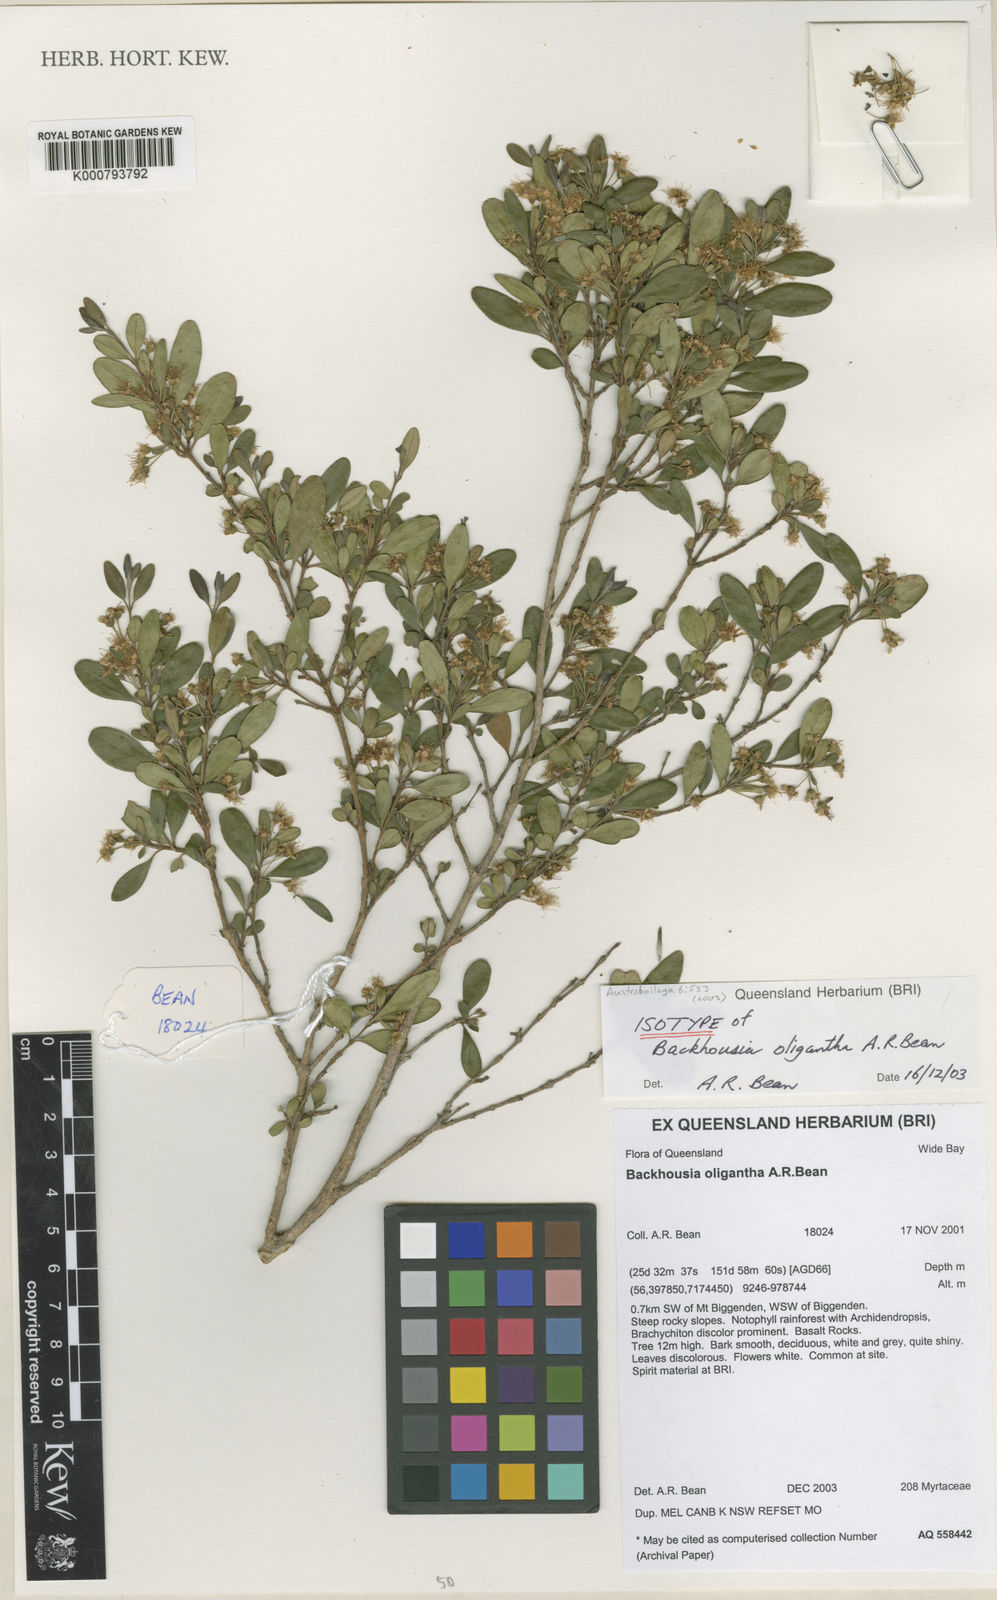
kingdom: Plantae
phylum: Tracheophyta
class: Magnoliopsida
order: Myrtales
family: Myrtaceae
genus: Backhousia
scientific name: Backhousia oligantha
